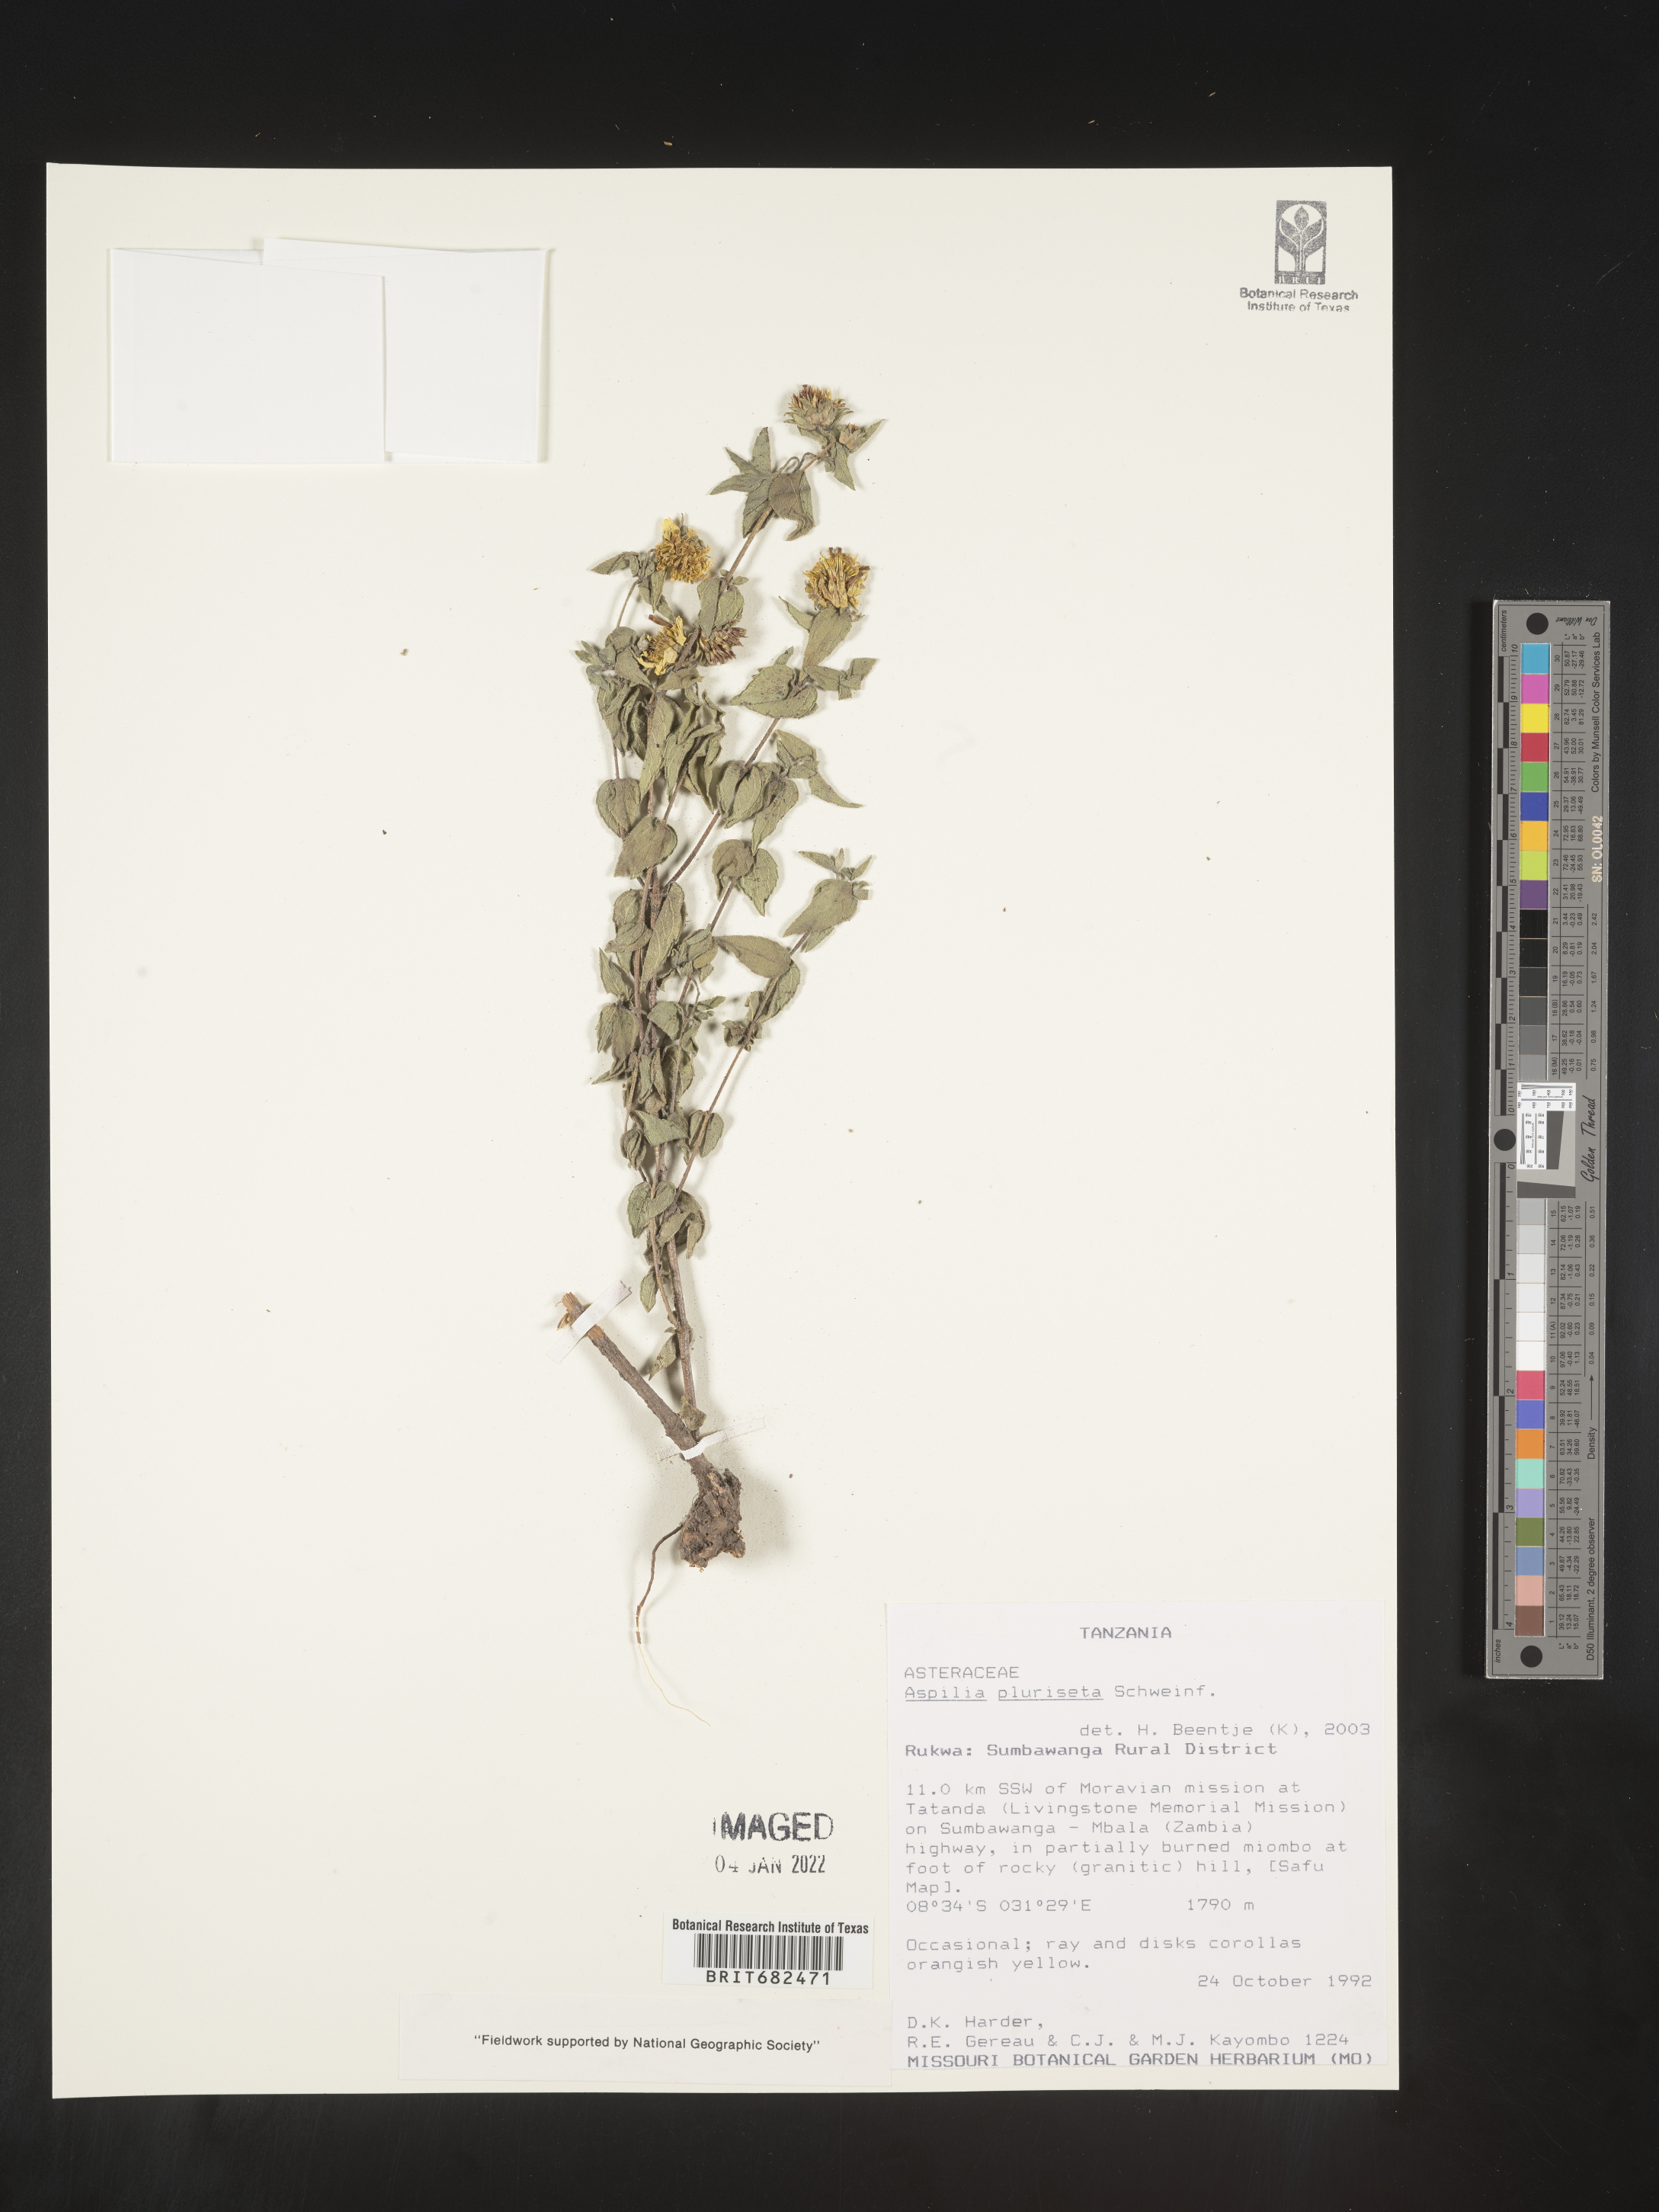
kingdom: Plantae
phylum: Tracheophyta
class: Magnoliopsida
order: Asterales
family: Asteraceae
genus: Aspilia
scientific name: Aspilia
